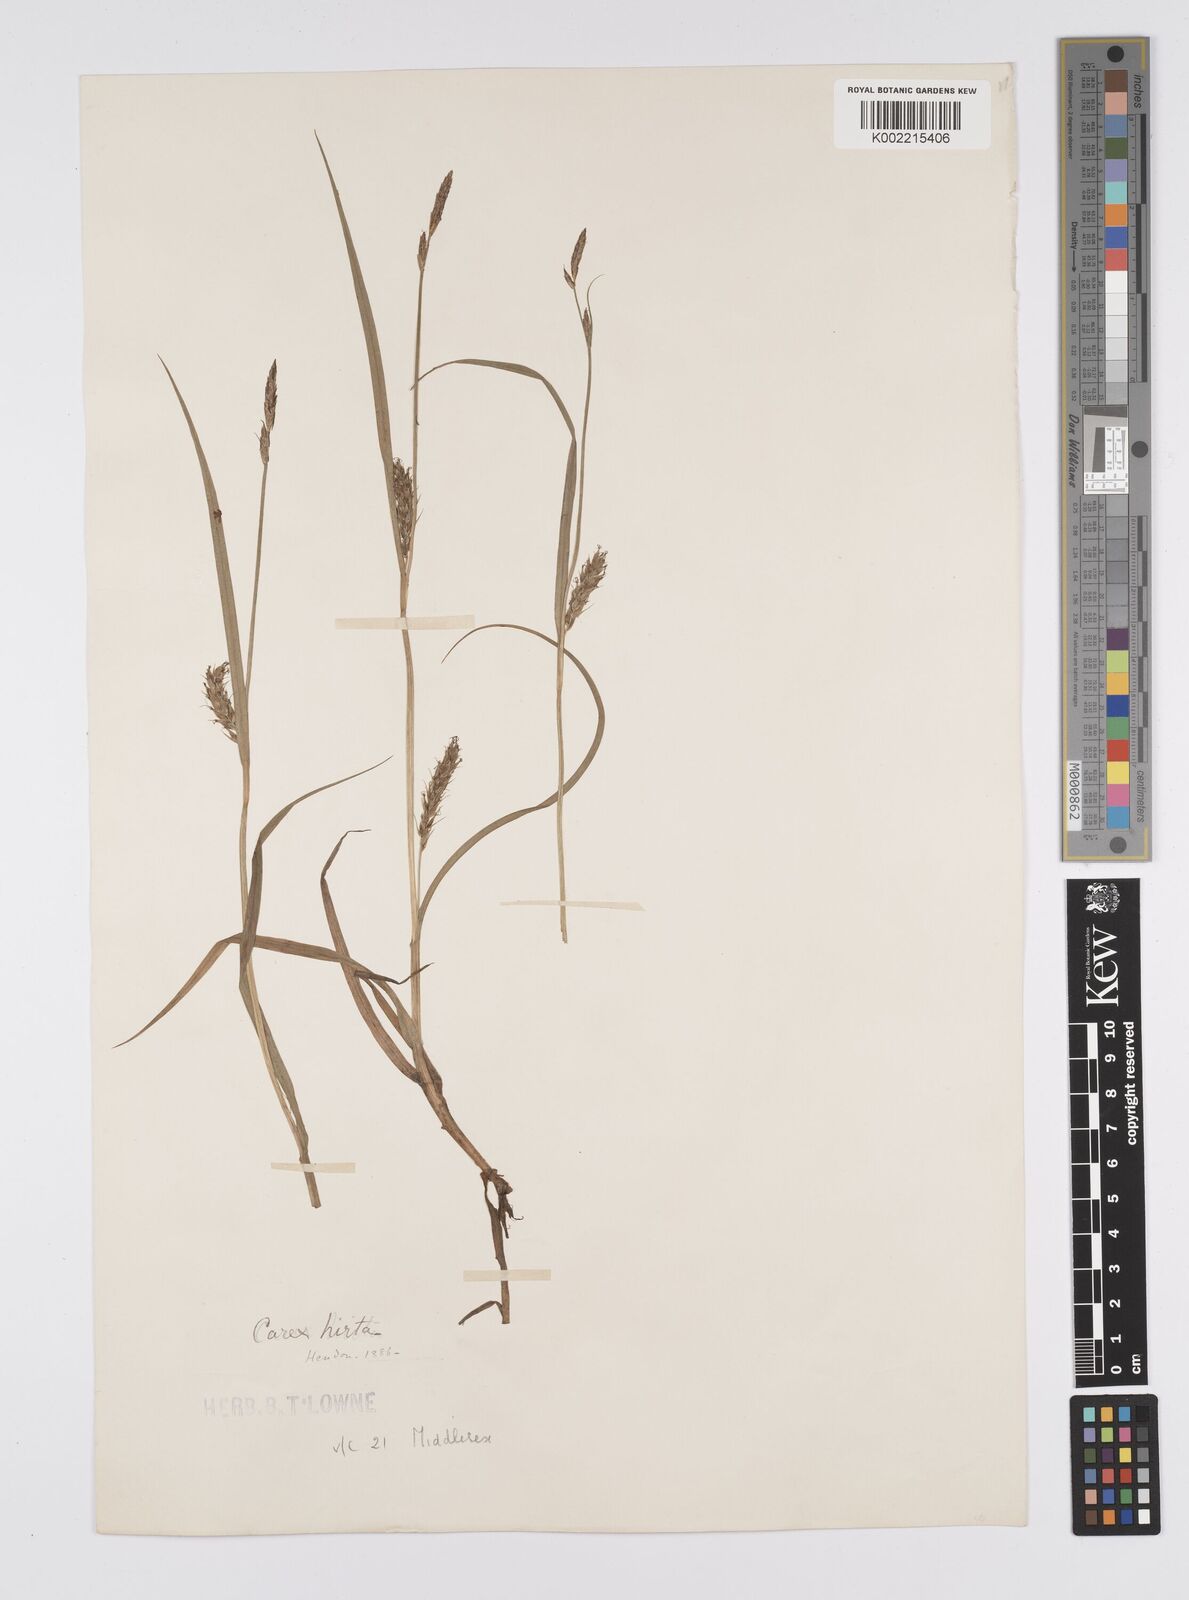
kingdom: Plantae
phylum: Tracheophyta
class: Liliopsida
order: Poales
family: Cyperaceae
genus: Carex
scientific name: Carex hirta
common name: Hairy sedge
